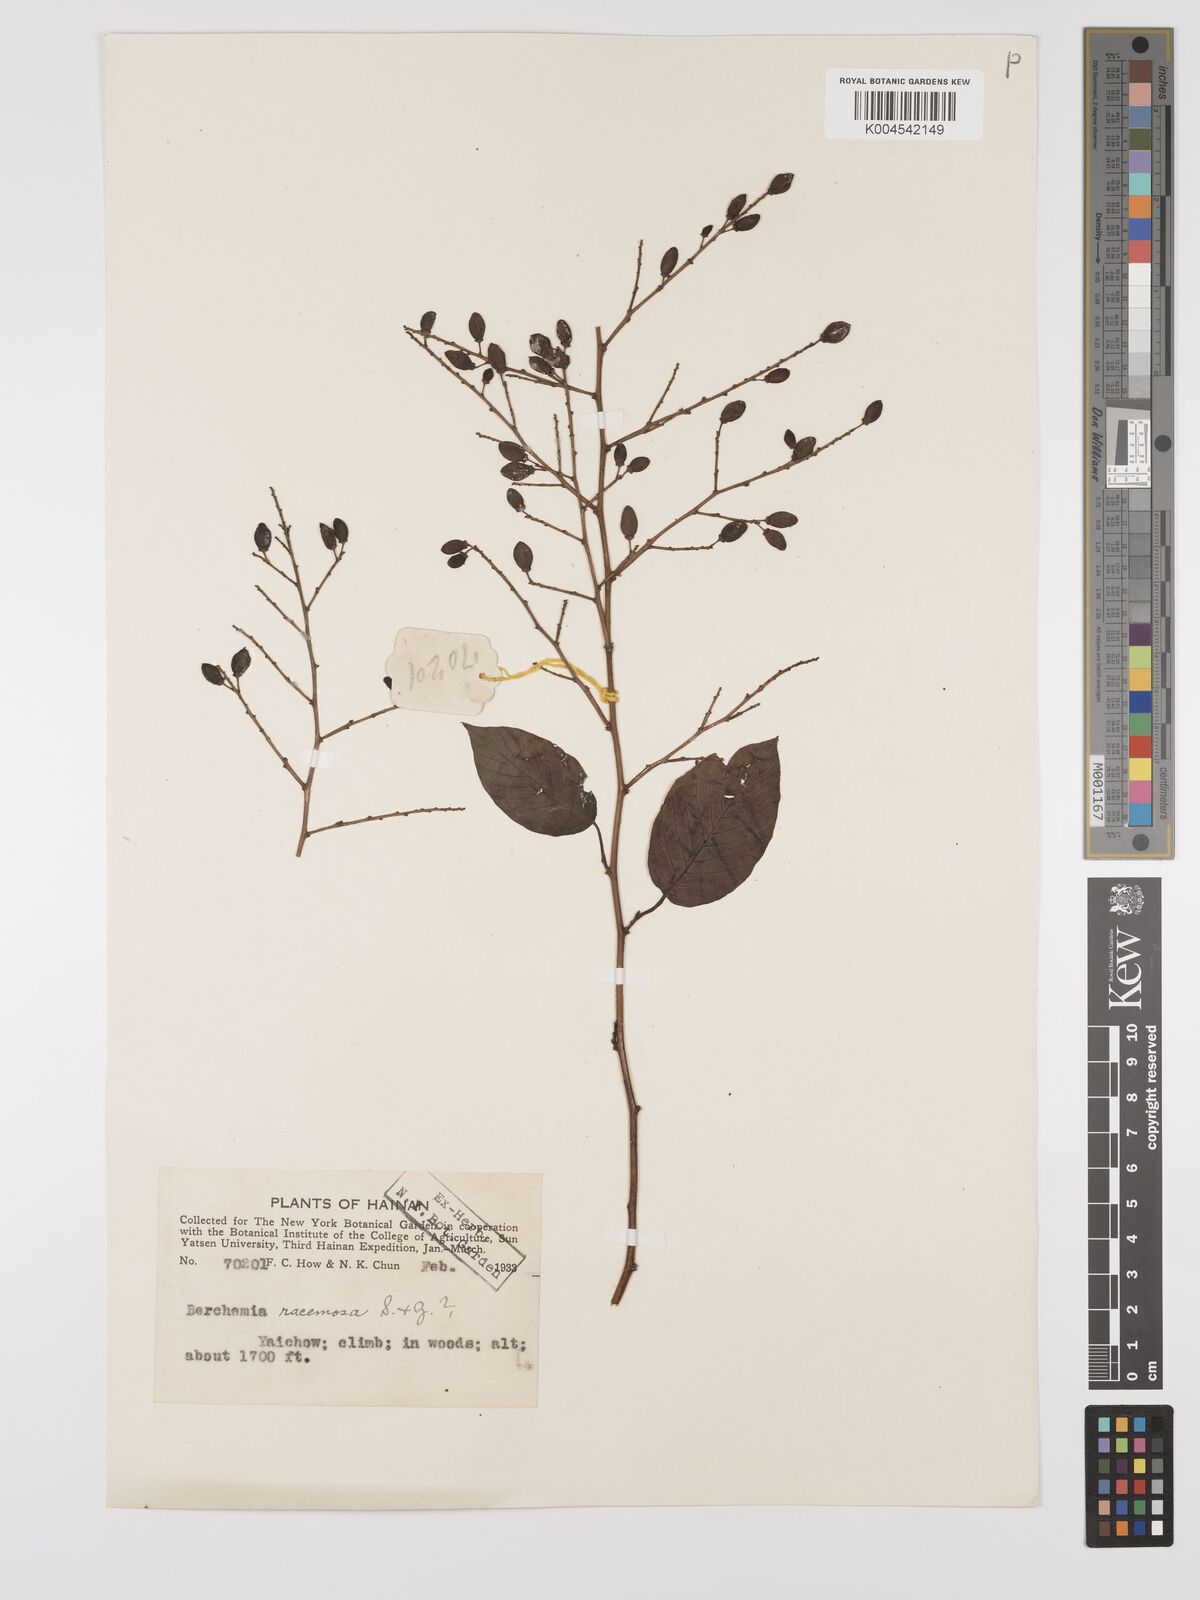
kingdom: Plantae
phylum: Tracheophyta
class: Magnoliopsida
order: Rosales
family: Rhamnaceae
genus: Berchemia
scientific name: Berchemia floribunda
